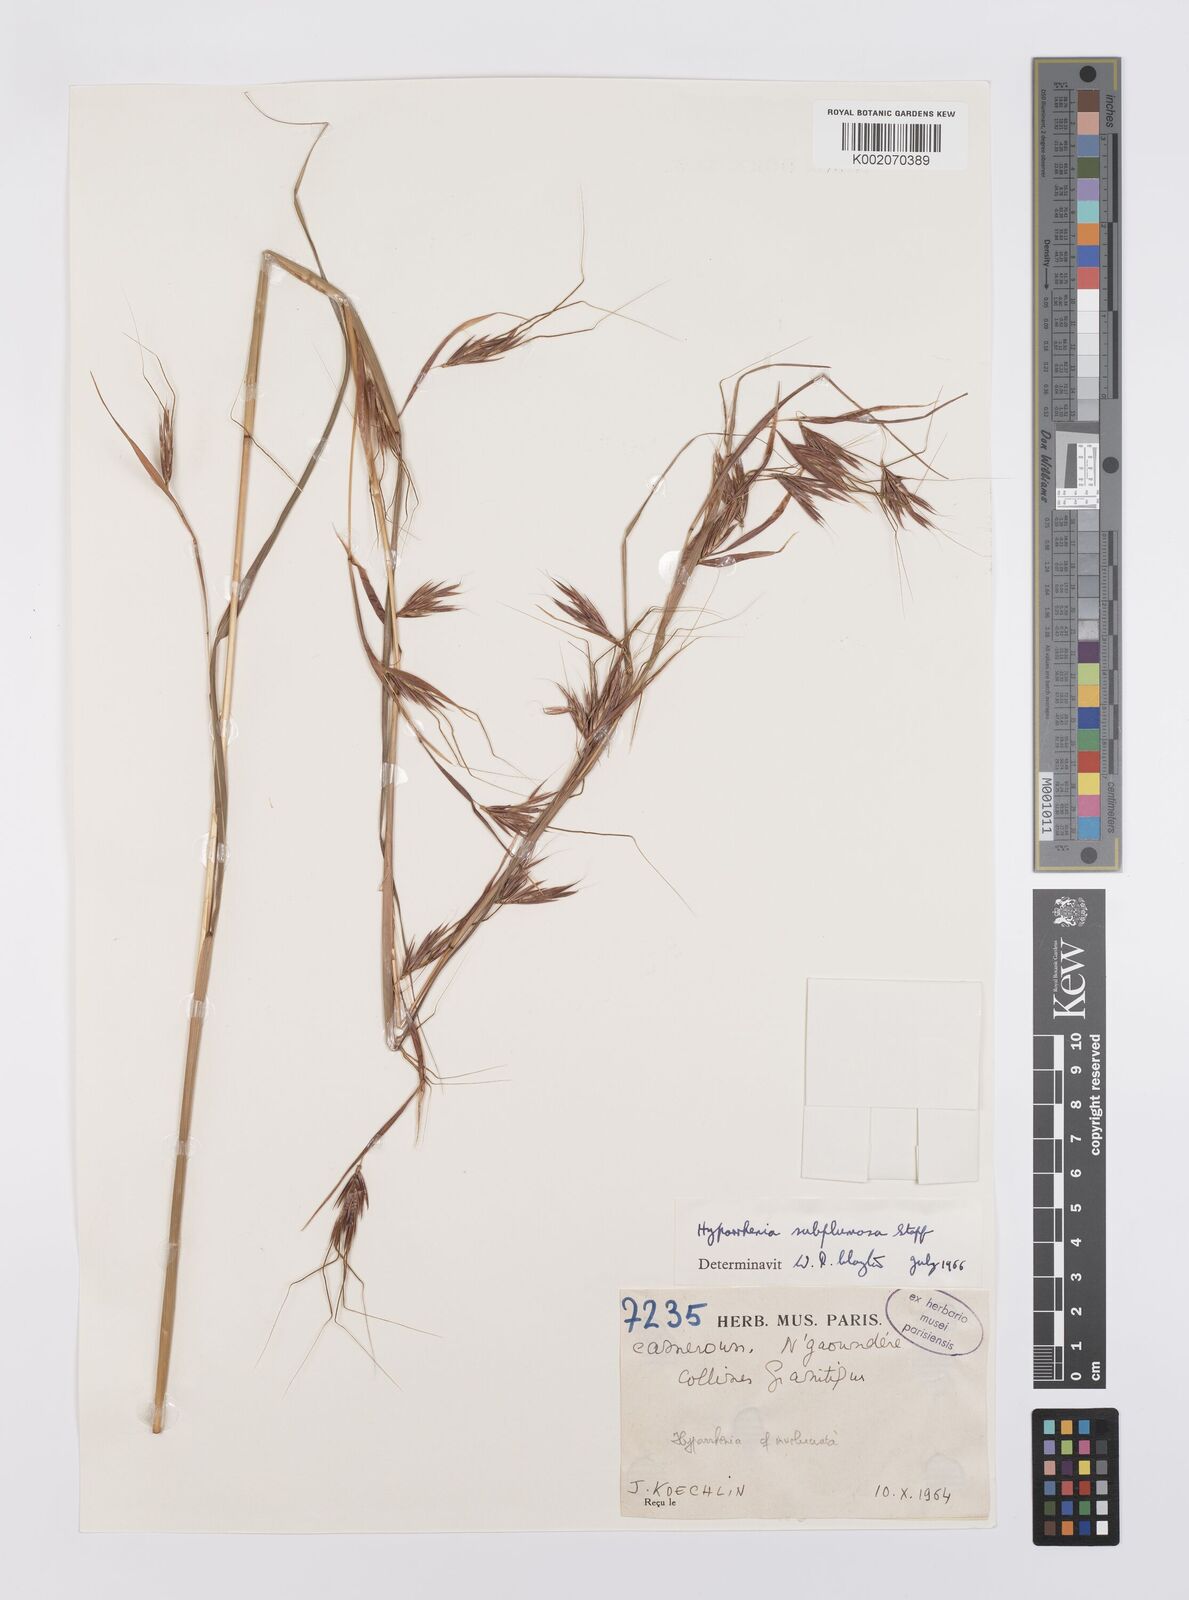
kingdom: Plantae
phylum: Tracheophyta
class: Liliopsida
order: Poales
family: Poaceae
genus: Hyparrhenia
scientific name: Hyparrhenia subplumosa
